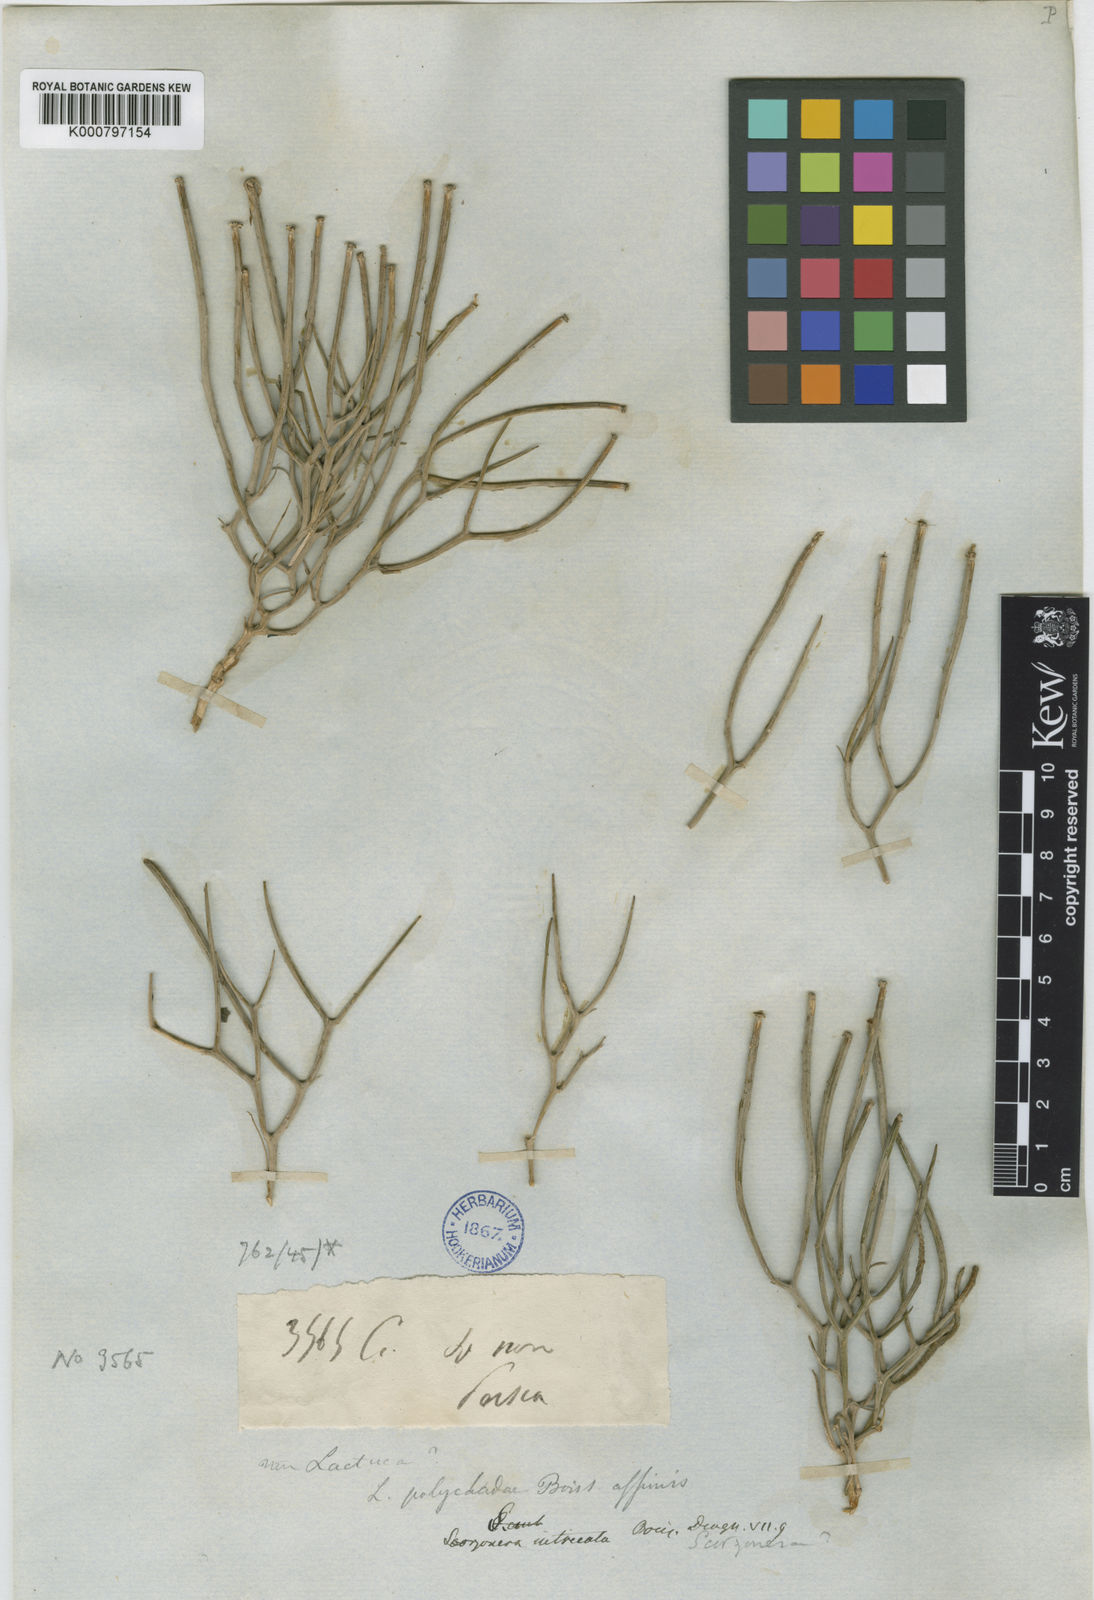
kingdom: Plantae
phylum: Tracheophyta
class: Magnoliopsida
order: Asterales
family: Asteraceae
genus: Ramaliella
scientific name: Ramaliella intricata
